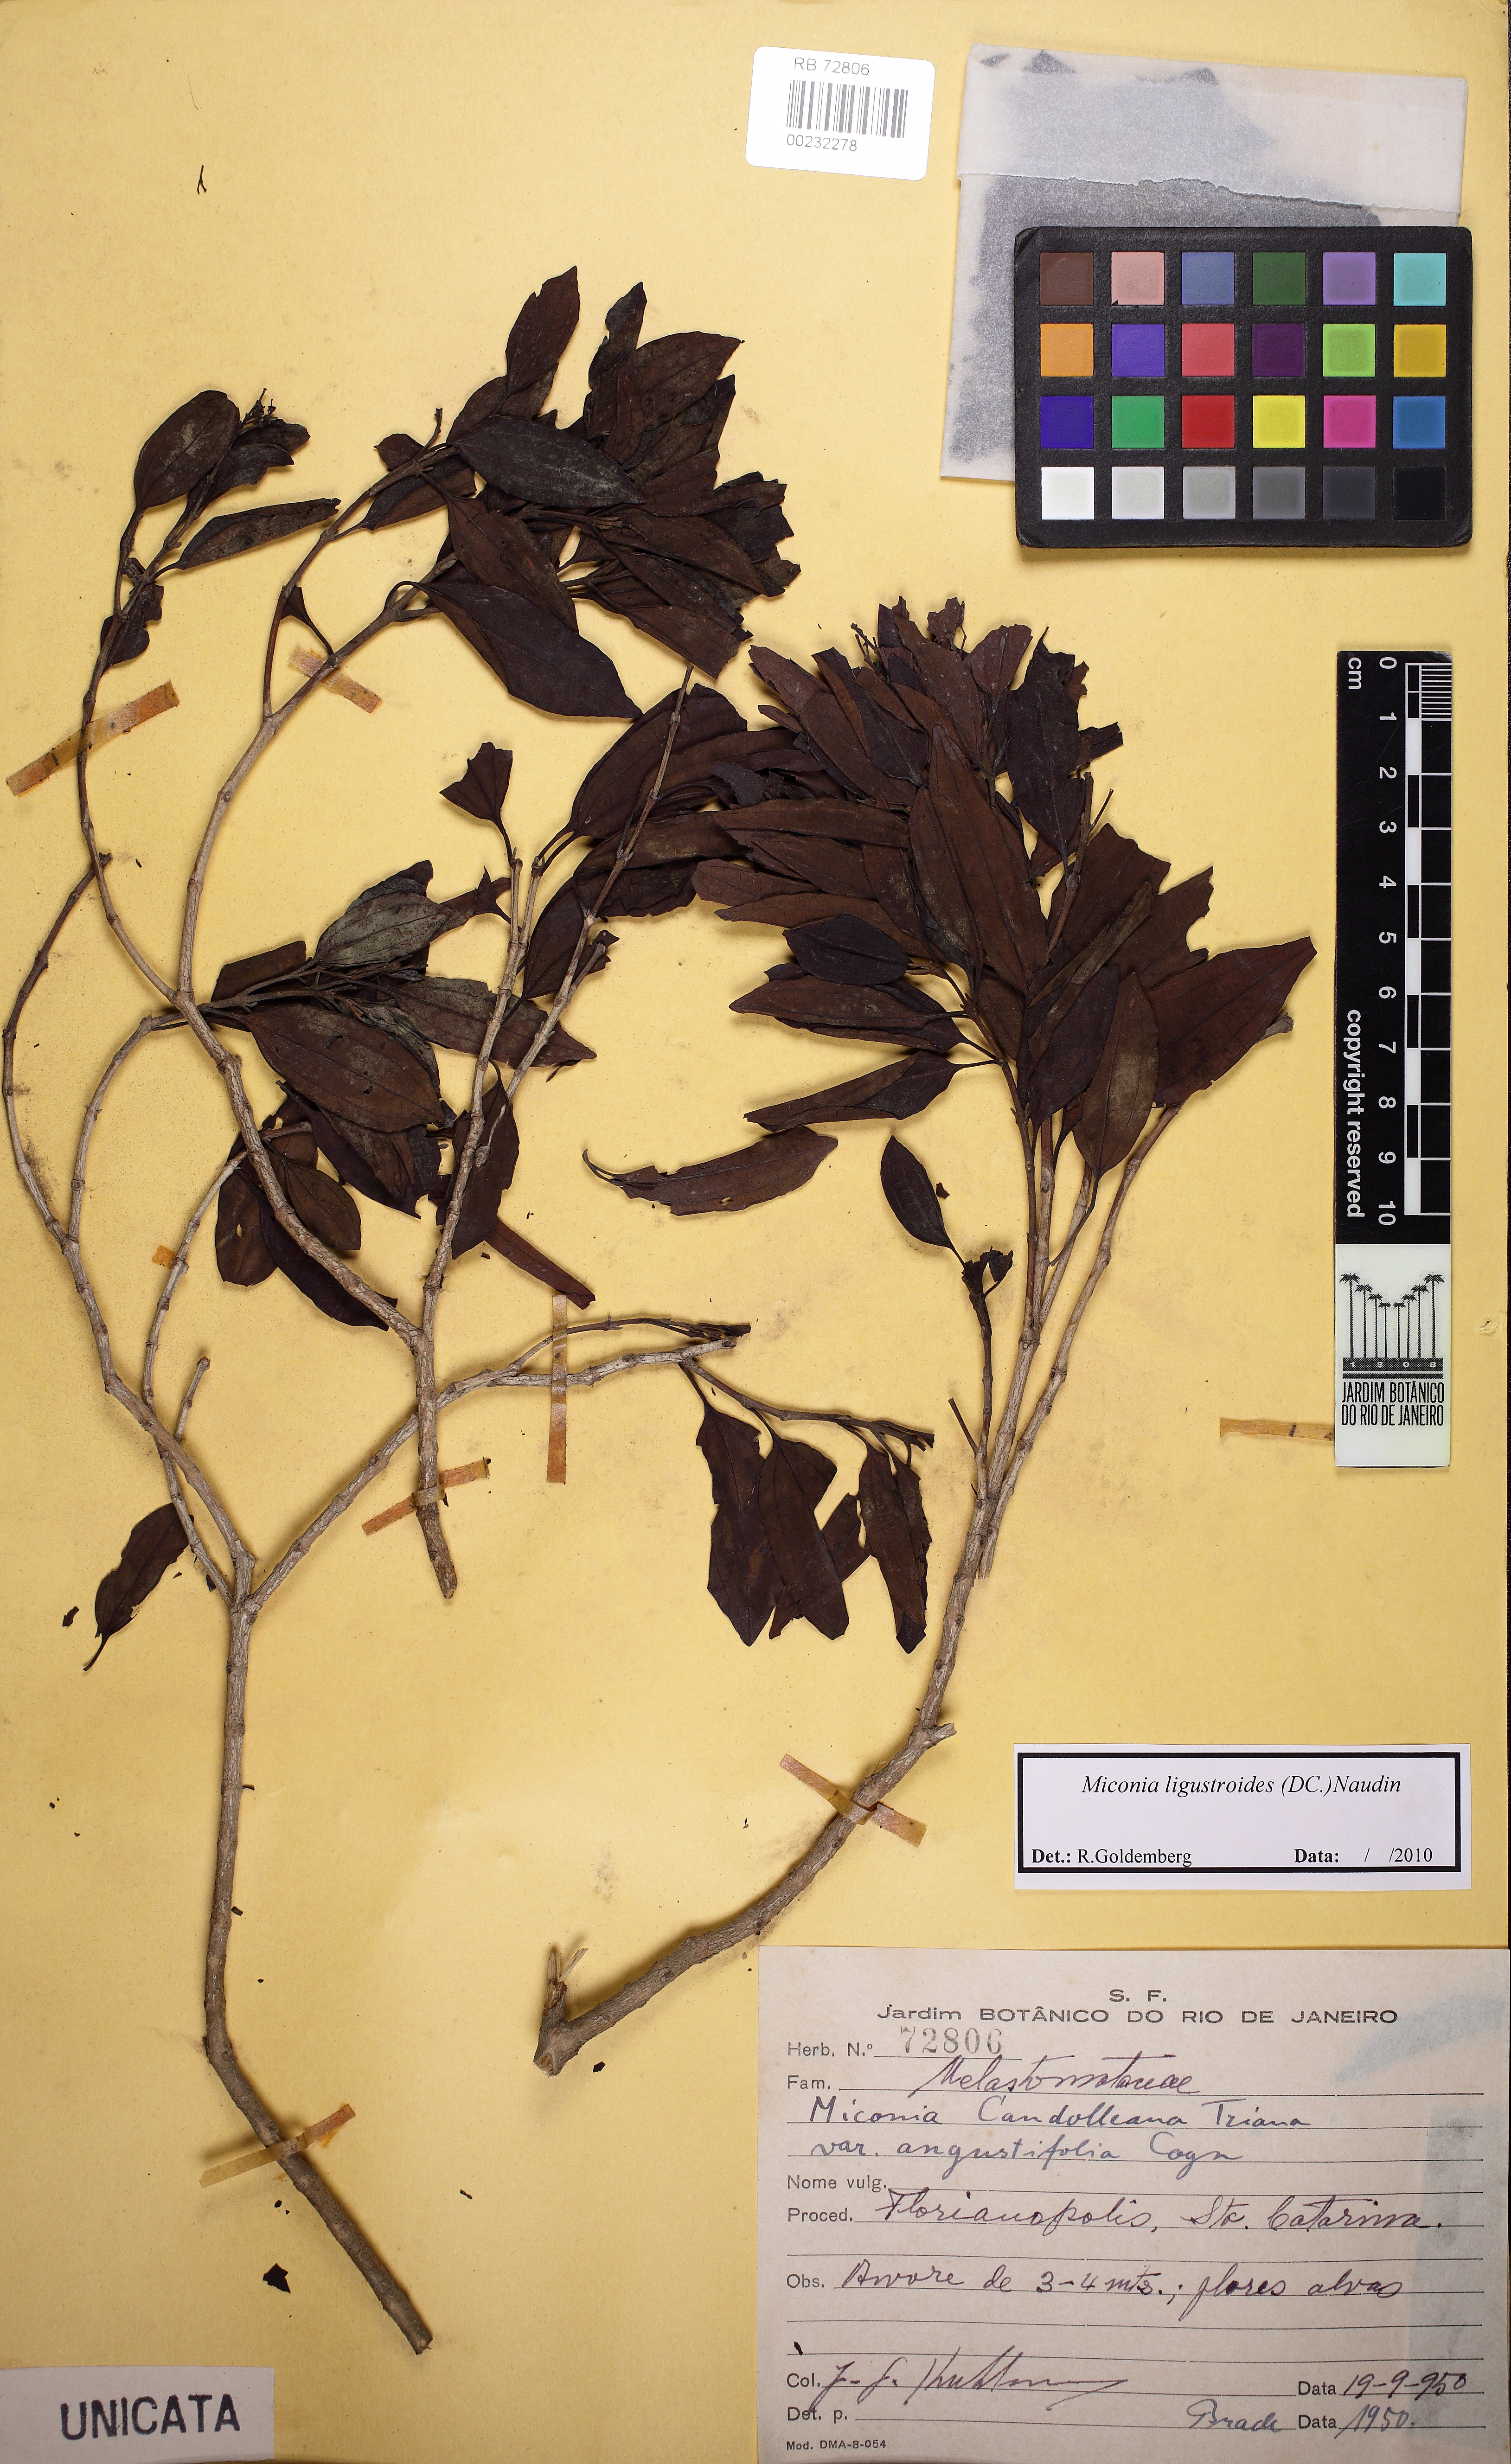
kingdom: Plantae
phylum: Tracheophyta
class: Magnoliopsida
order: Myrtales
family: Melastomataceae
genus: Miconia
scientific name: Miconia ligustroides
